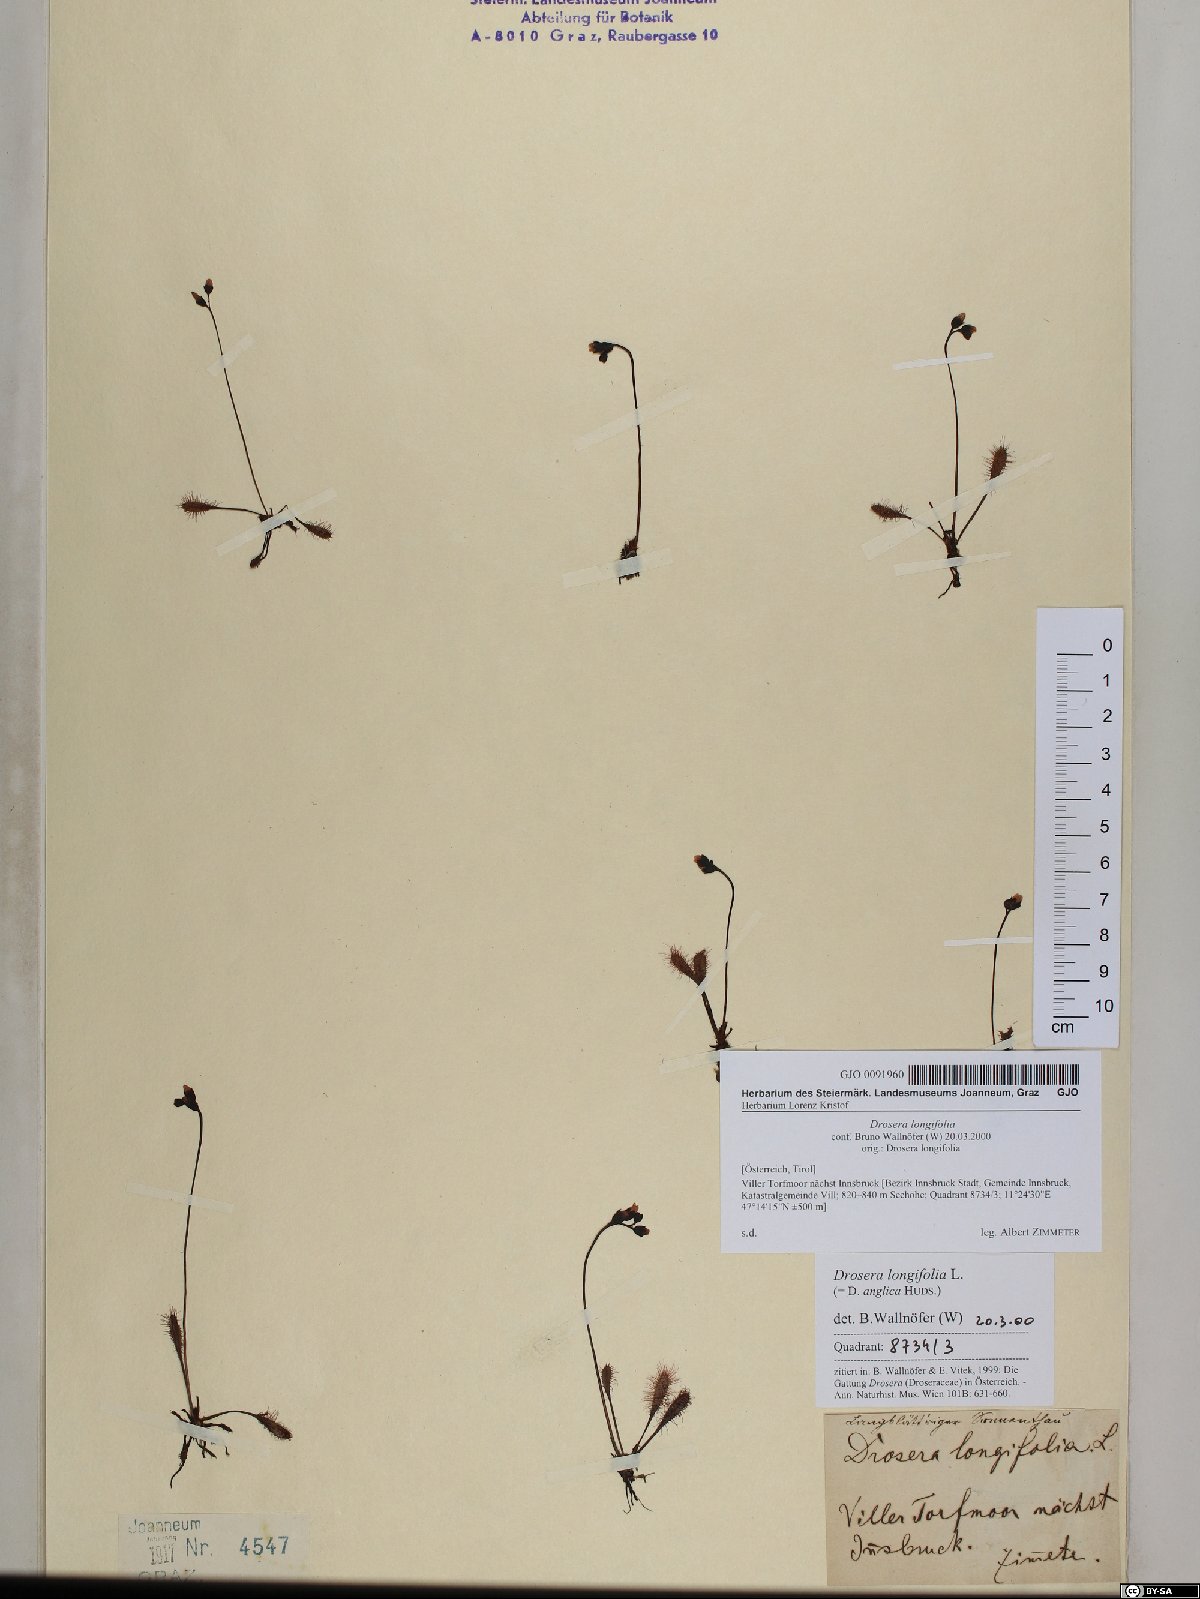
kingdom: Plantae
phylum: Tracheophyta
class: Magnoliopsida
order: Caryophyllales
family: Droseraceae
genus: Drosera
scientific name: Drosera anglica
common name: Great sundew
